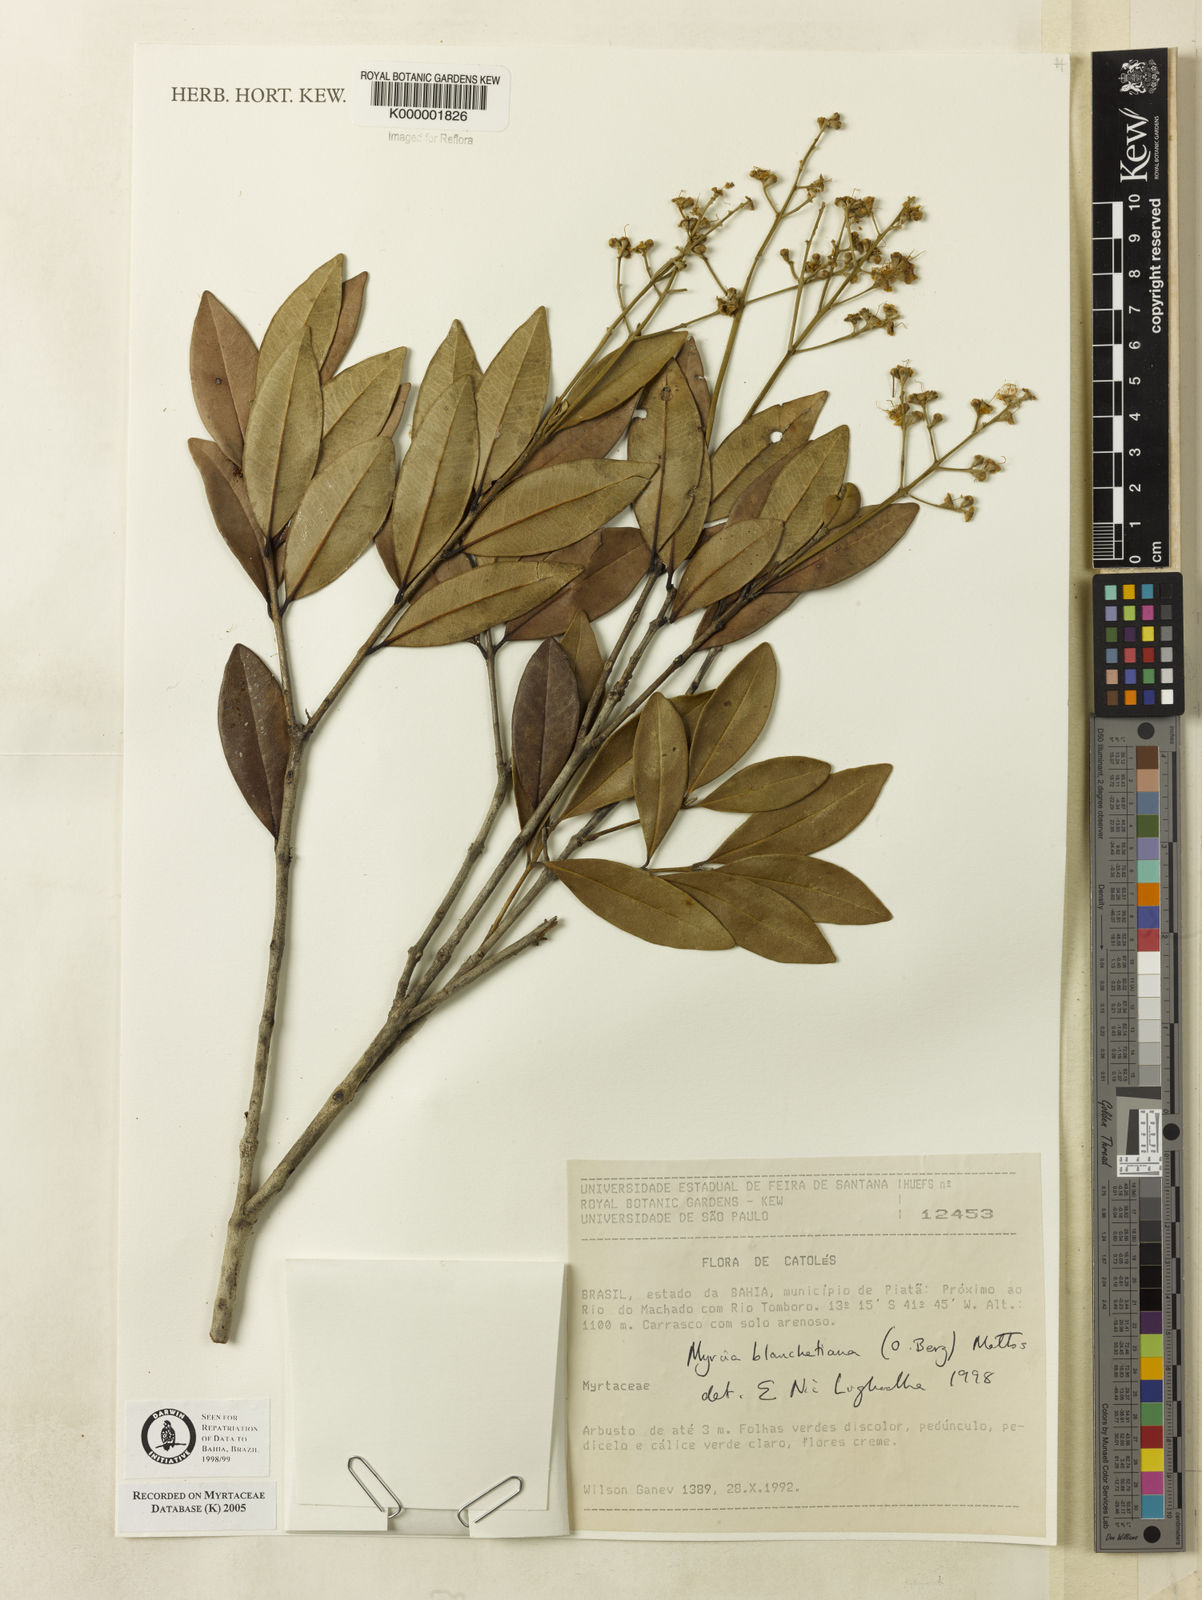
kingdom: Plantae
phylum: Tracheophyta
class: Magnoliopsida
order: Myrtales
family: Myrtaceae
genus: Myrcia
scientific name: Myrcia blanchetiana
